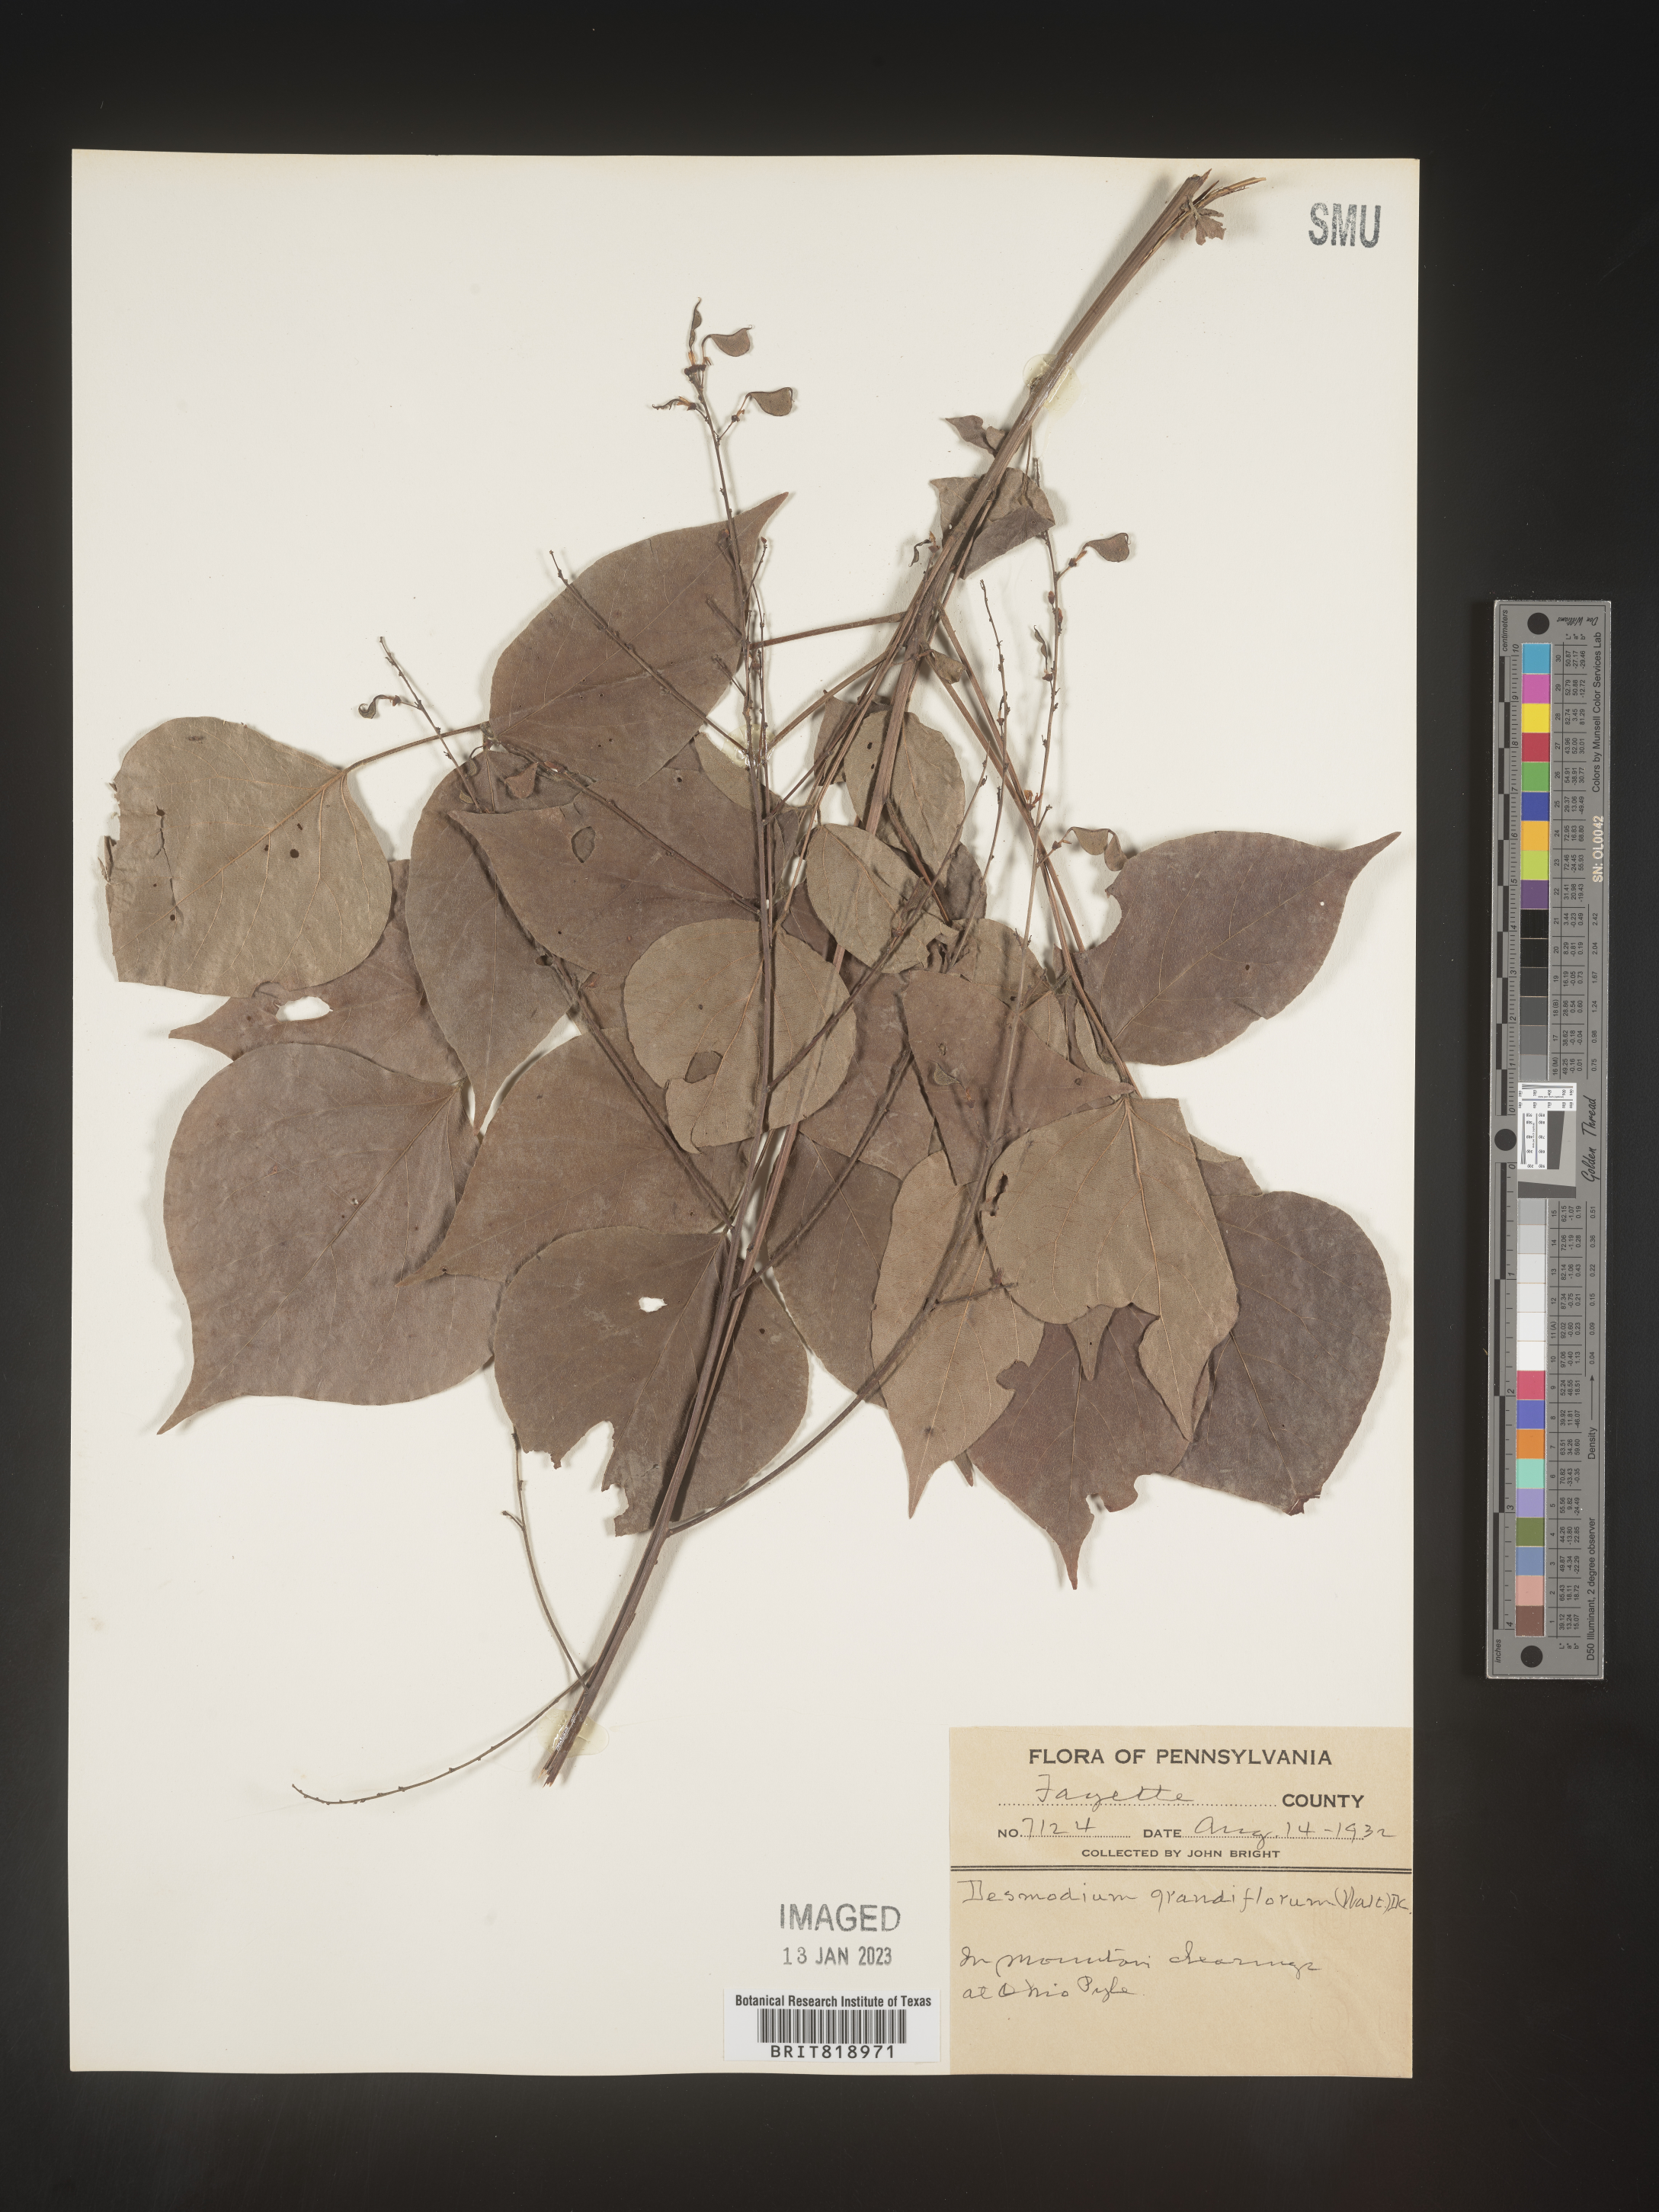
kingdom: Plantae
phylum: Tracheophyta
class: Magnoliopsida
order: Fabales
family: Fabaceae
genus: Hylodesmum
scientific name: Hylodesmum glutinosum
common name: Clustered-leaved tick-trefoil
